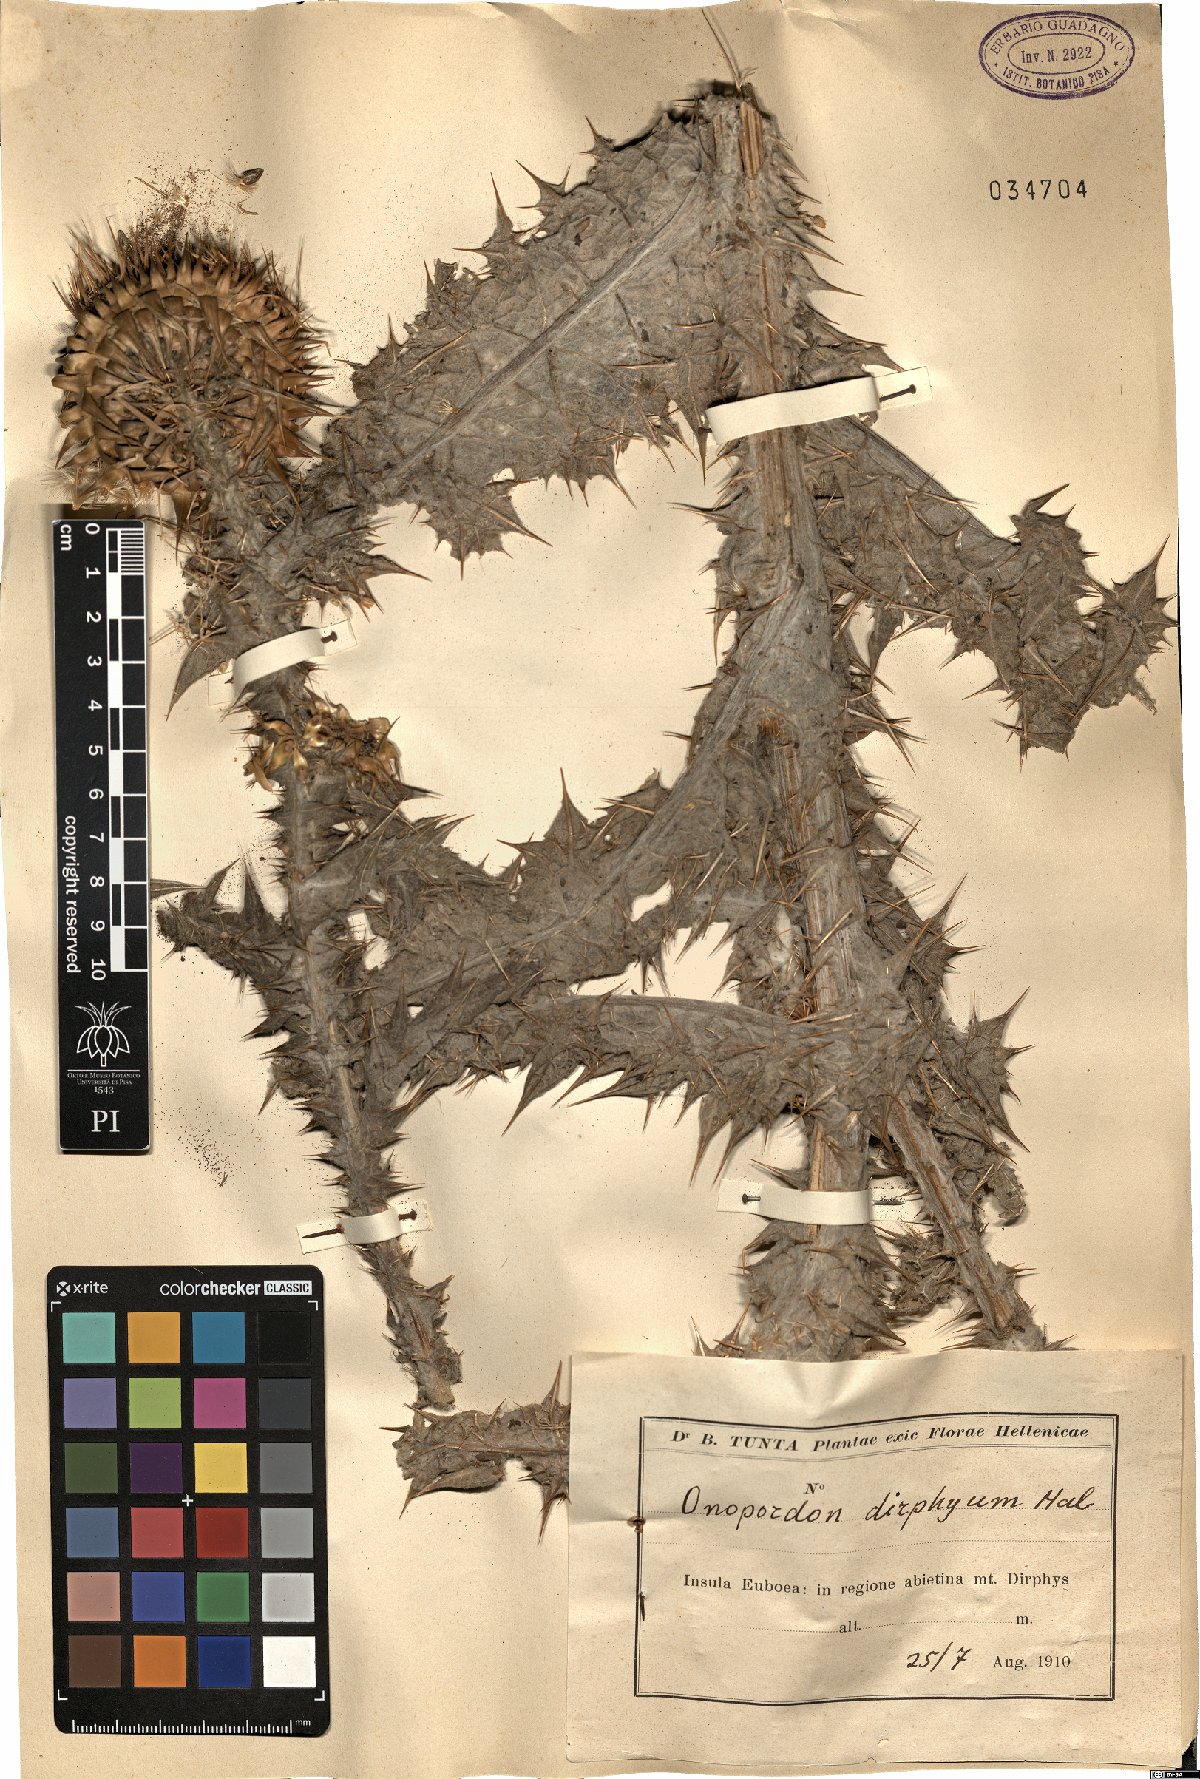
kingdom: Plantae
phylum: Tracheophyta
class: Magnoliopsida
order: Asterales
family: Asteraceae
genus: Onopordum
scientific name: Onopordum myriacanthum
